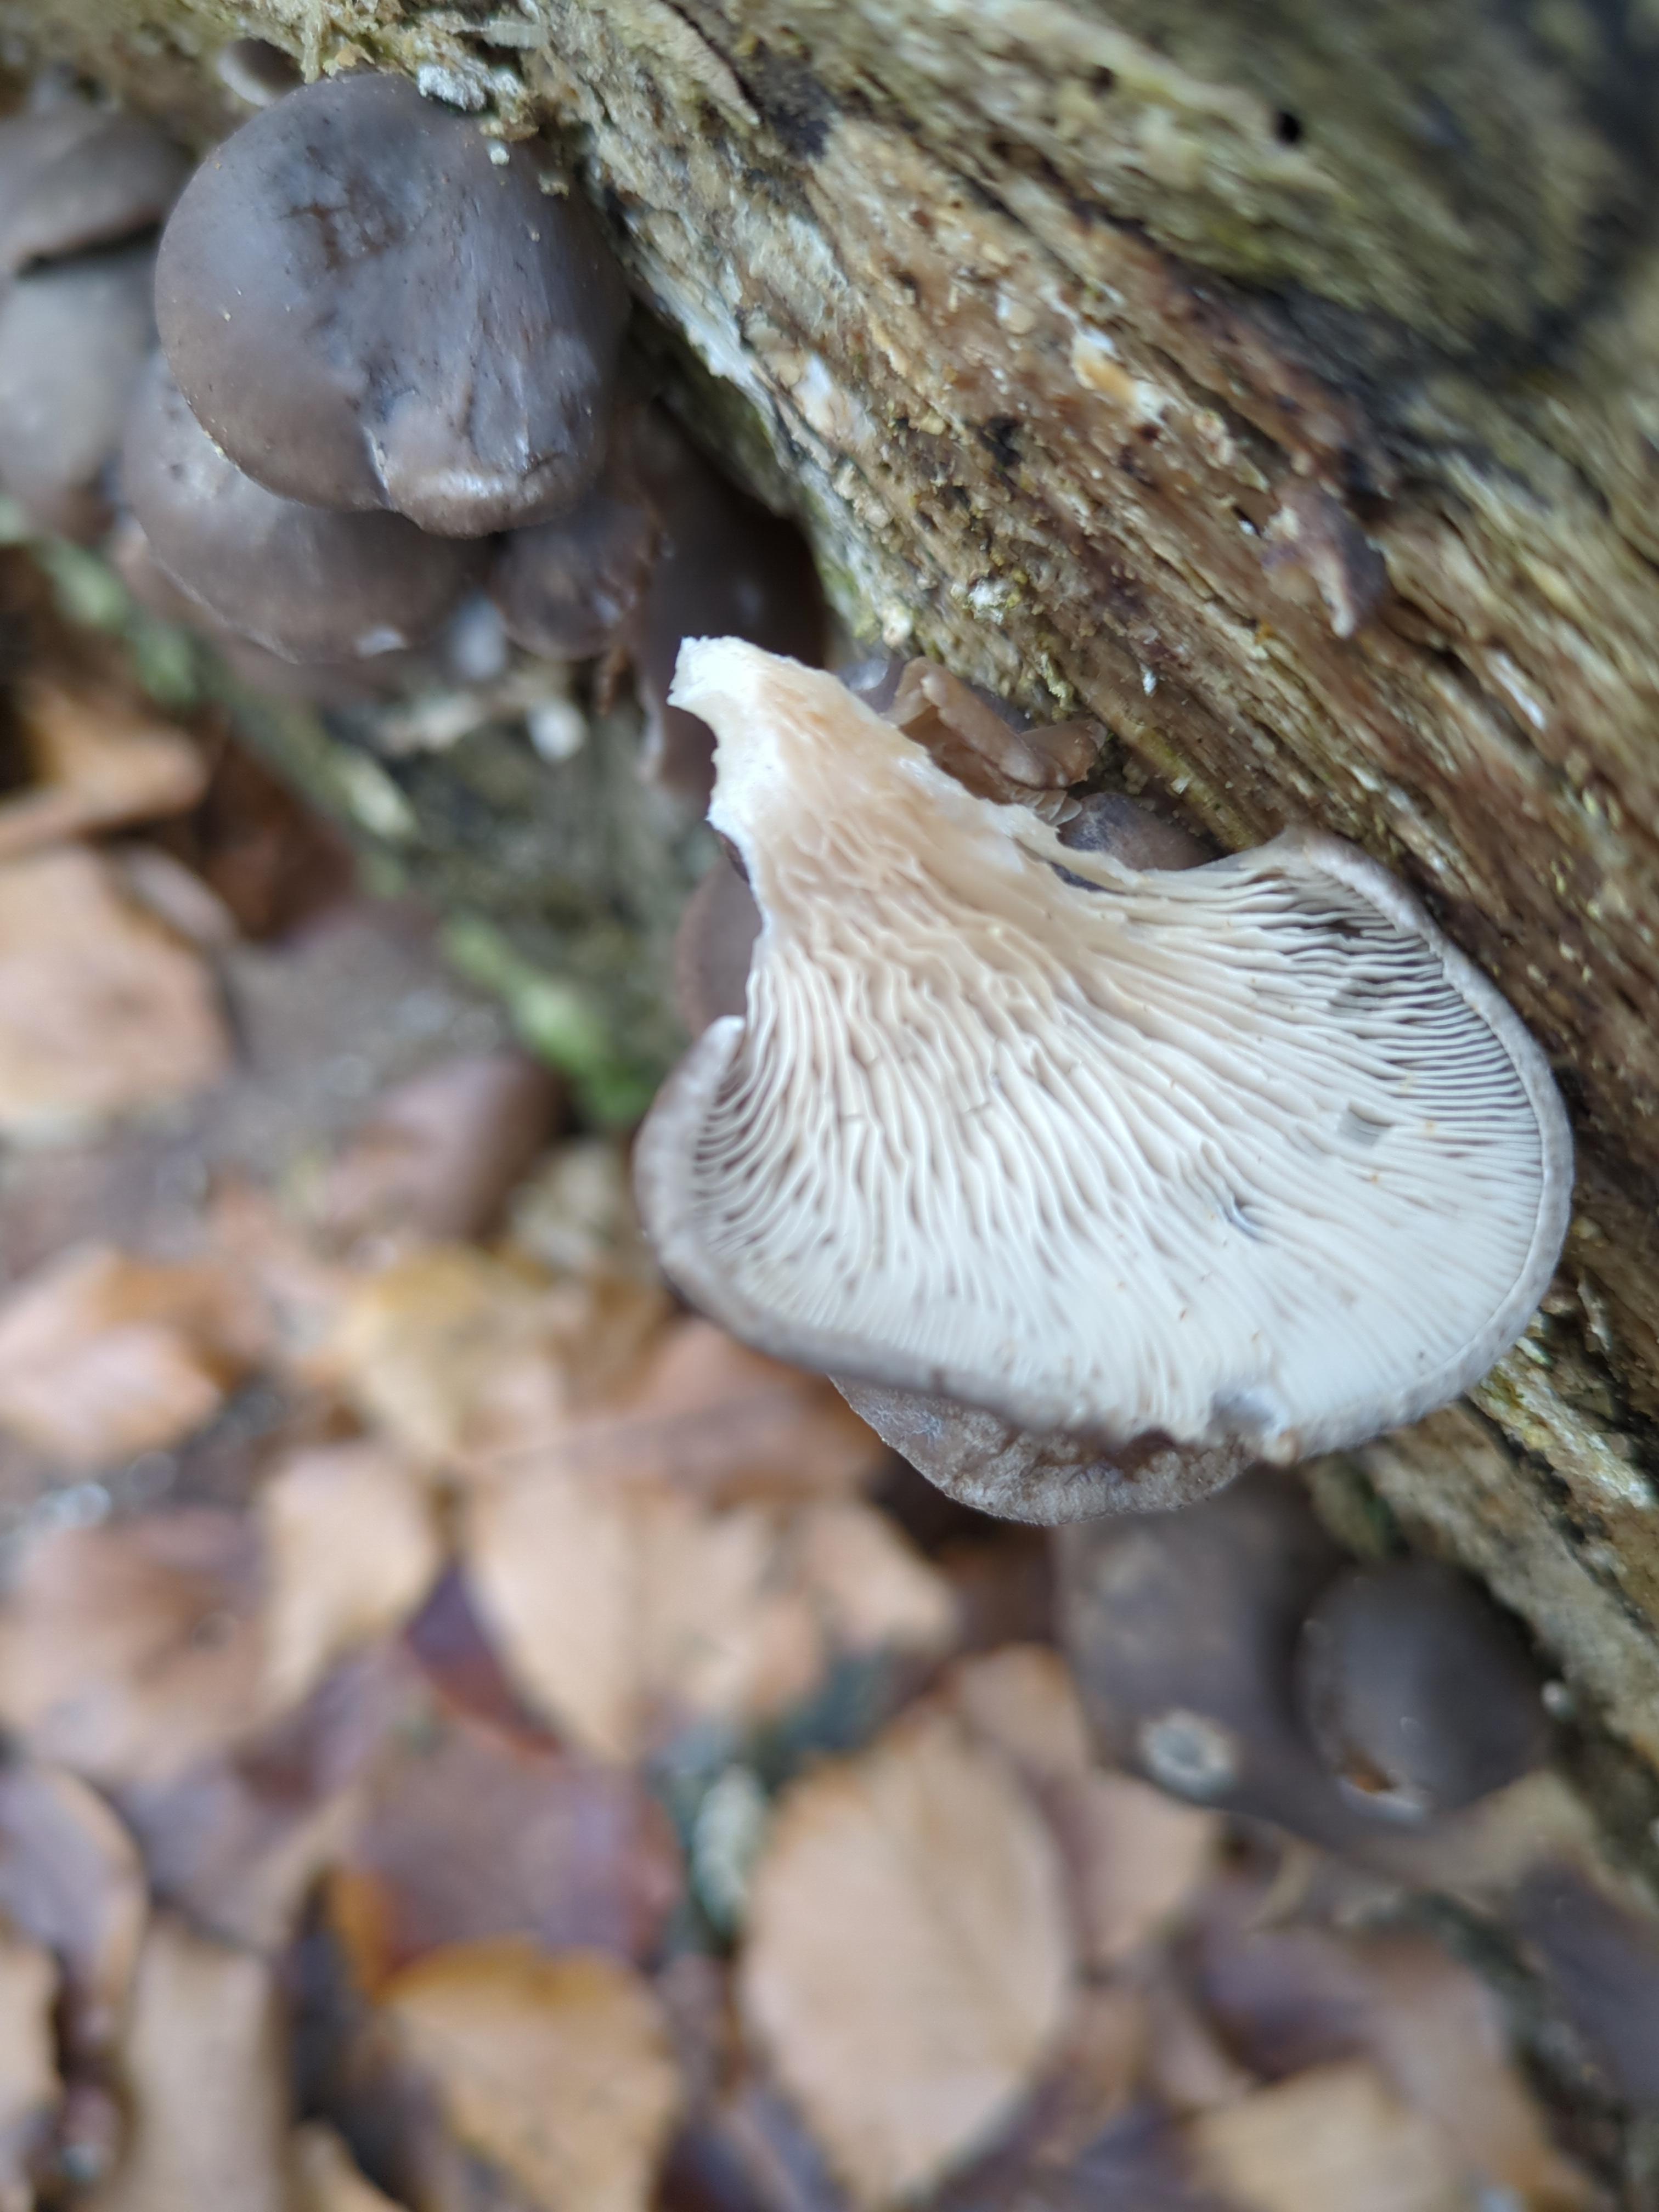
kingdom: Fungi
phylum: Basidiomycota
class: Agaricomycetes
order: Agaricales
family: Pleurotaceae
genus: Pleurotus
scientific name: Pleurotus ostreatus
